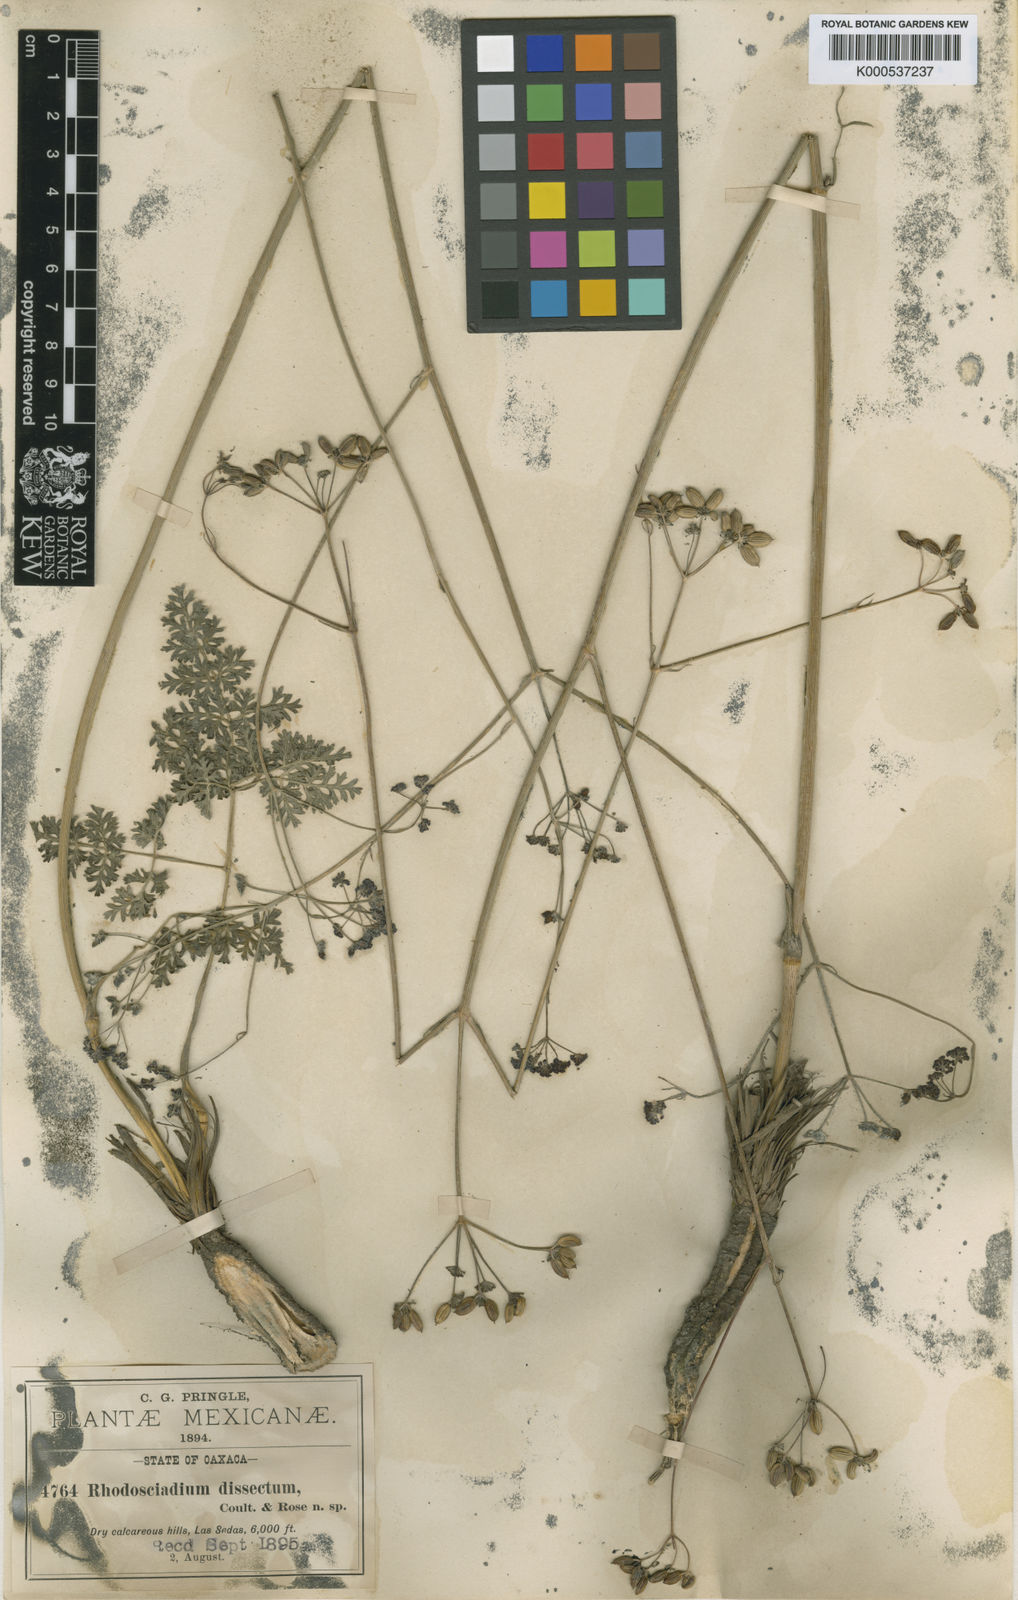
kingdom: Plantae
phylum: Tracheophyta
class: Magnoliopsida
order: Apiales
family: Apiaceae
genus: Rhodosciadium
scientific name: Rhodosciadium dissectum
